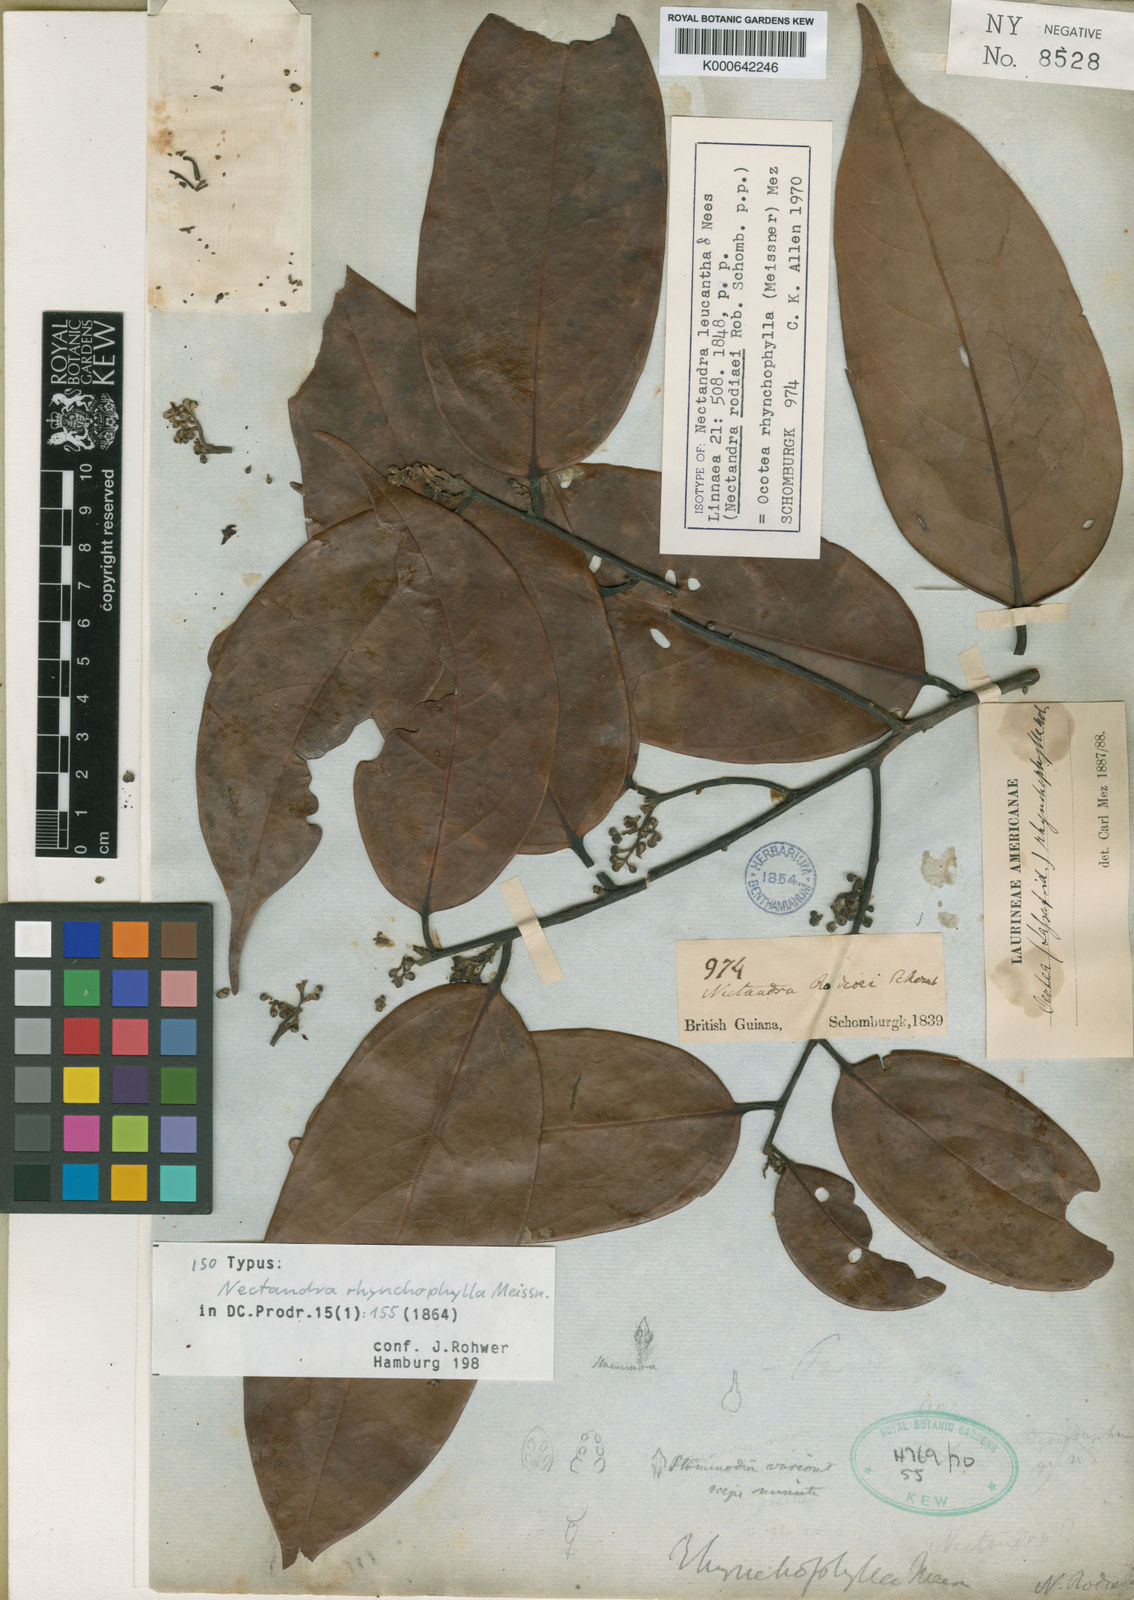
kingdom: Plantae
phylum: Tracheophyta
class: Magnoliopsida
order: Laurales
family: Lauraceae
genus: Nectandra
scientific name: Nectandra leucantha
